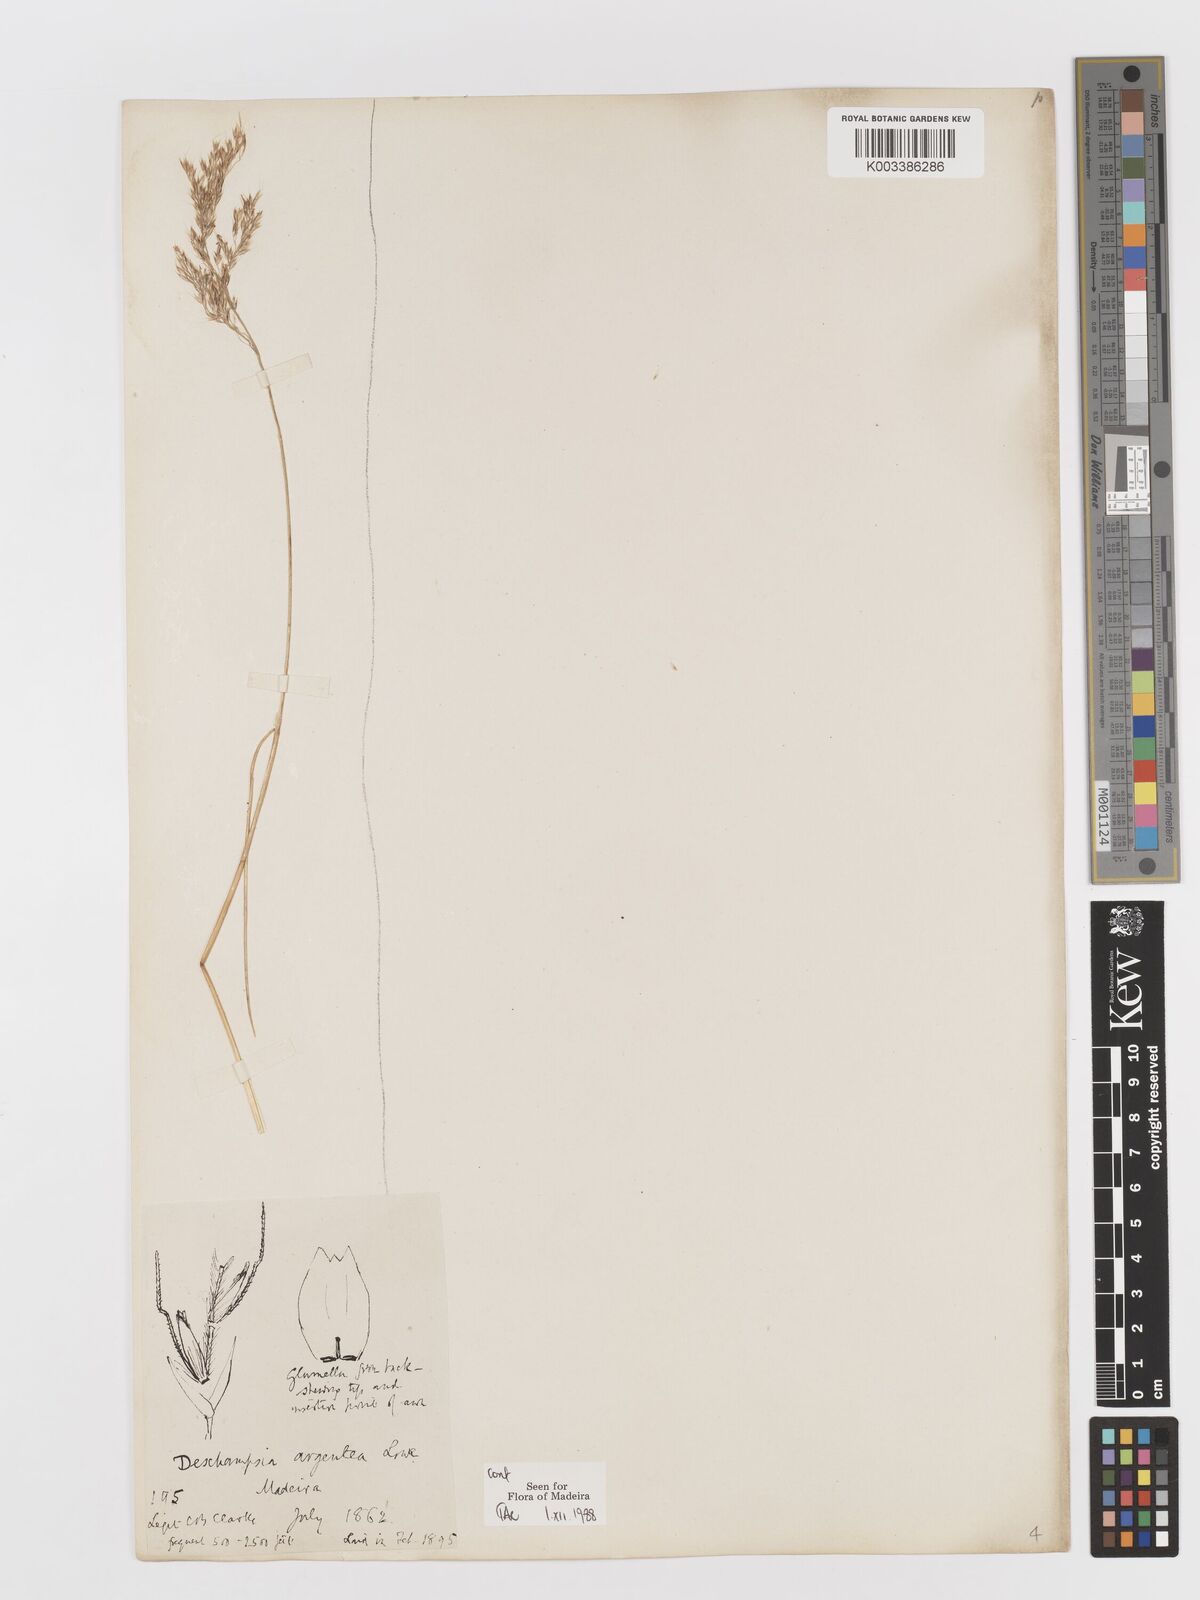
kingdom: Plantae
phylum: Tracheophyta
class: Liliopsida
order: Poales
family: Poaceae
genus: Deschampsia
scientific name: Deschampsia argentea
